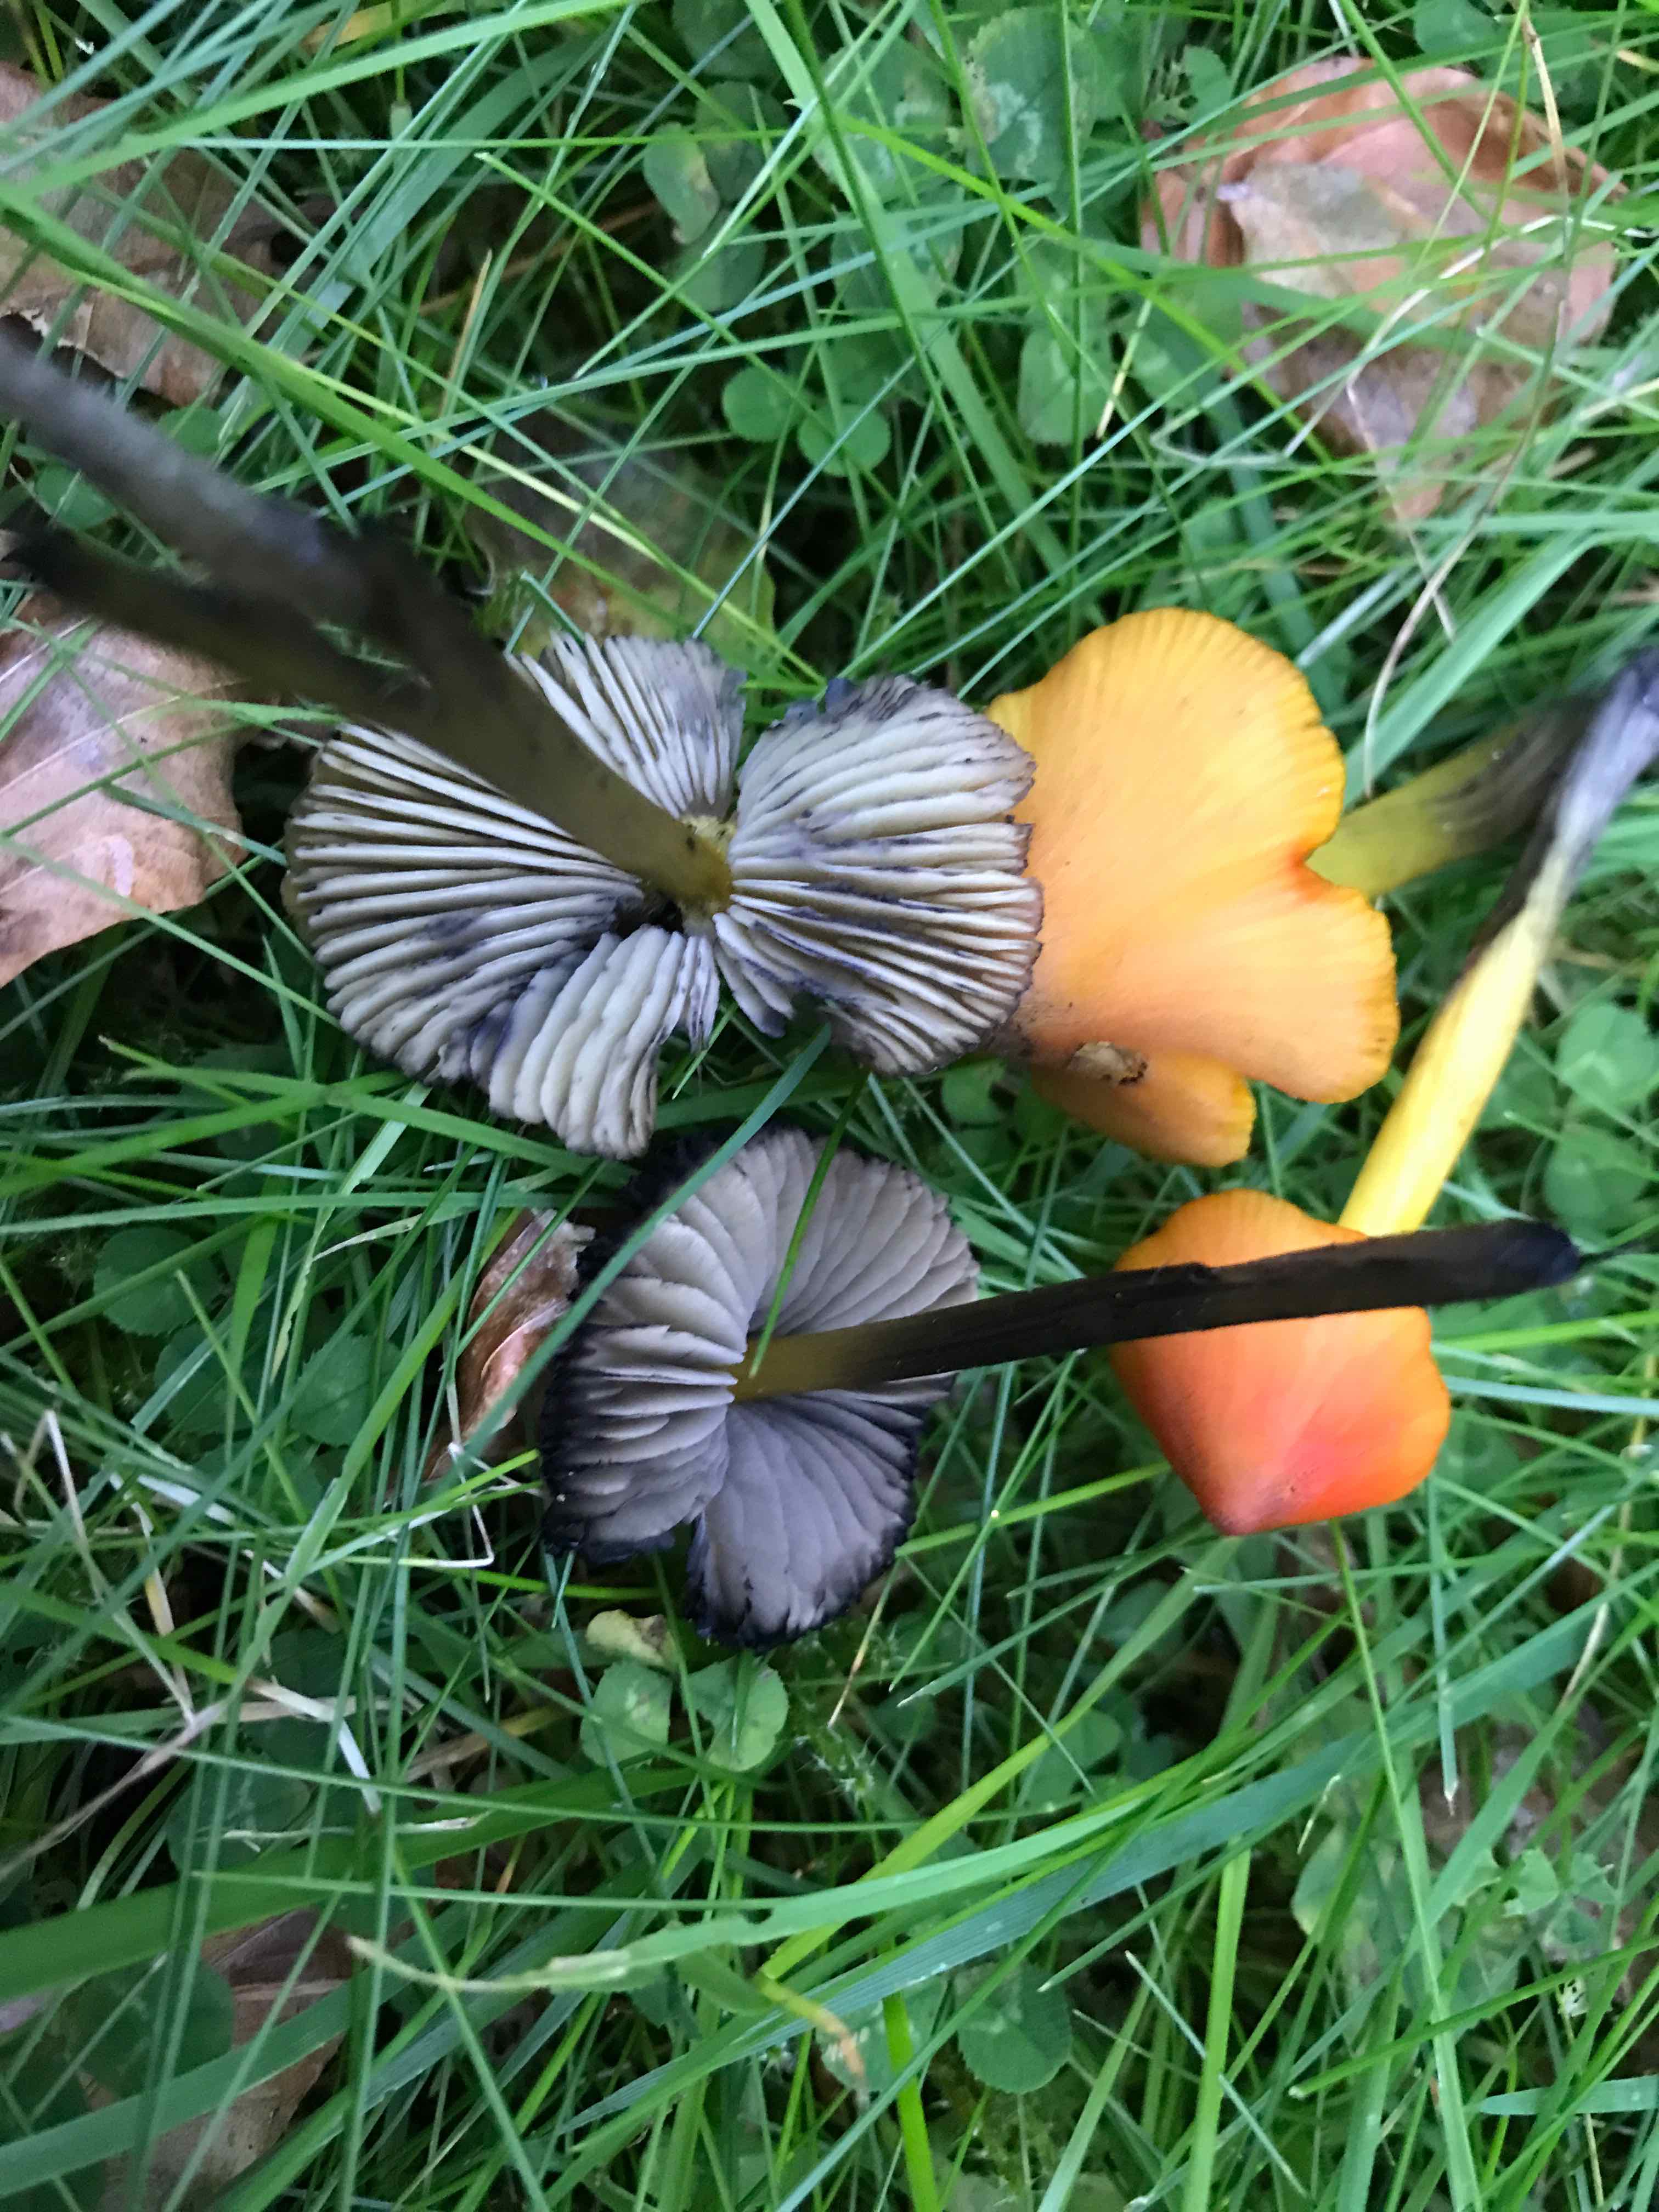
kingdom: Fungi
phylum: Basidiomycota
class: Agaricomycetes
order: Agaricales
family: Hygrophoraceae
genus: Hygrocybe
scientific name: Hygrocybe conica
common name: kegle-vokshat
